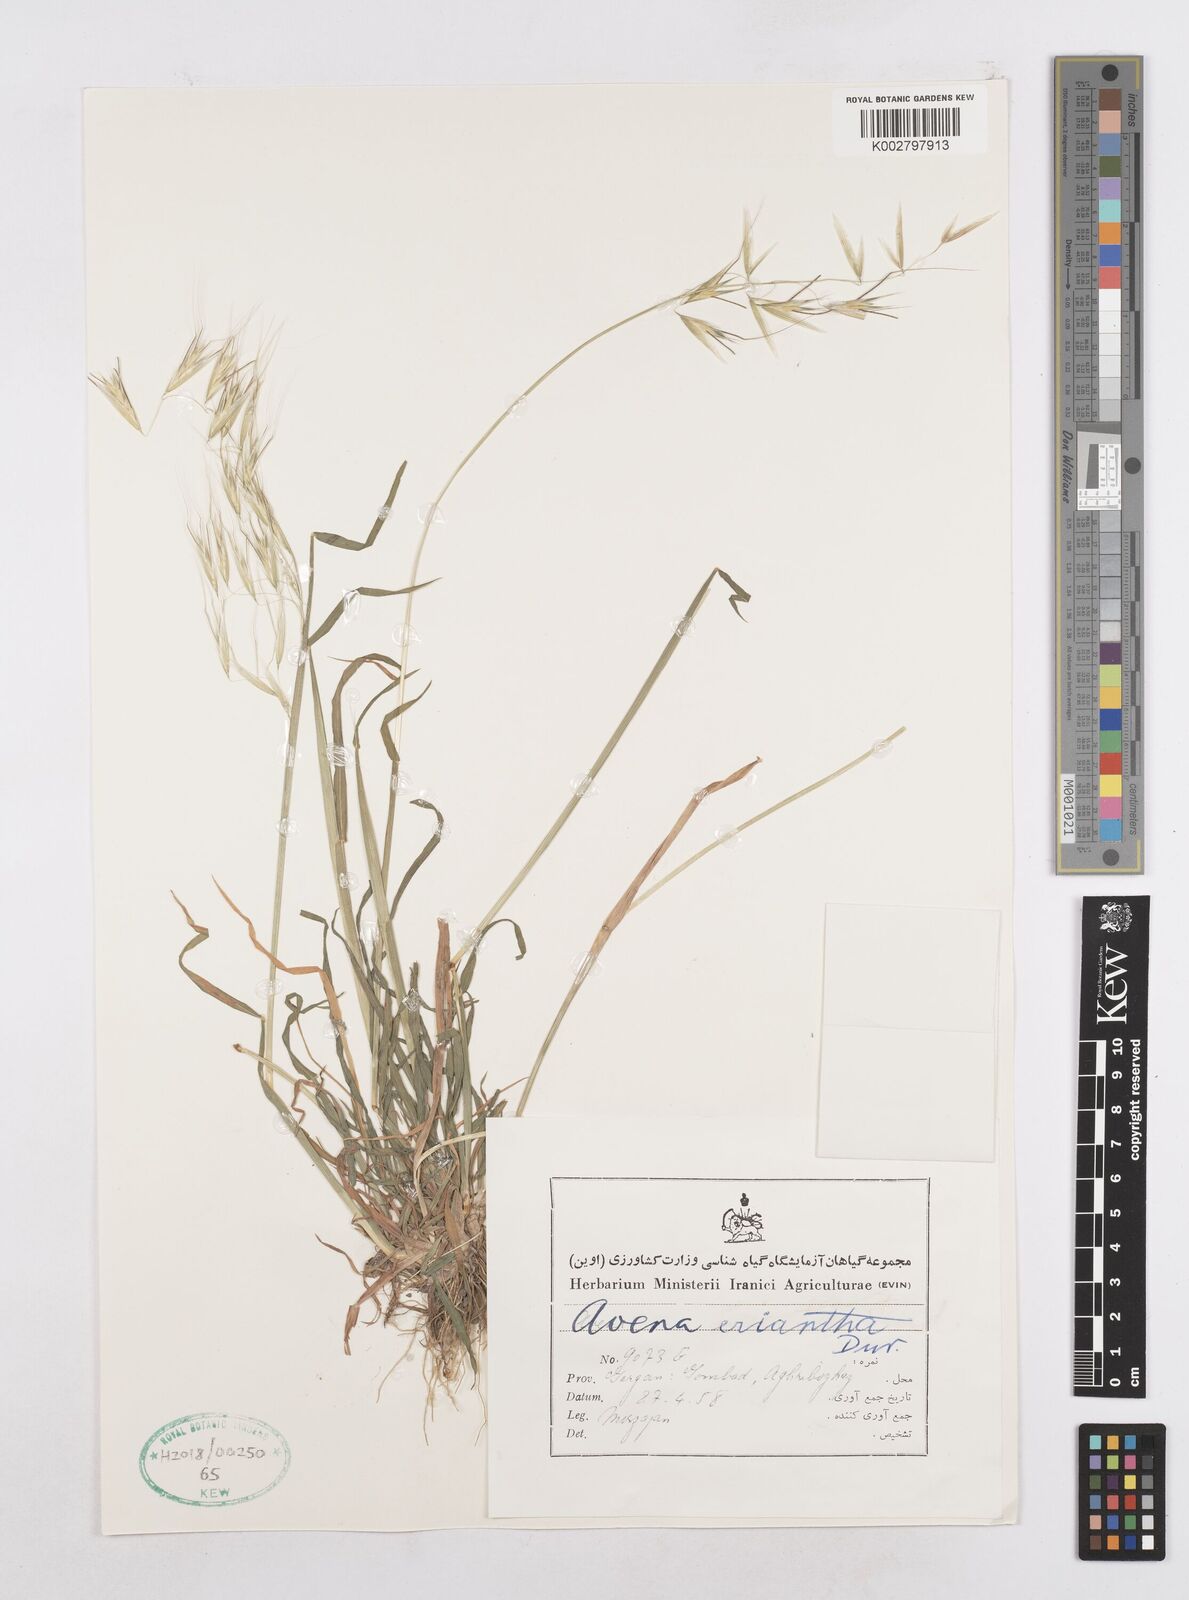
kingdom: Plantae
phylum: Tracheophyta
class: Liliopsida
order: Poales
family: Poaceae
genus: Avena
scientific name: Avena eriantha
